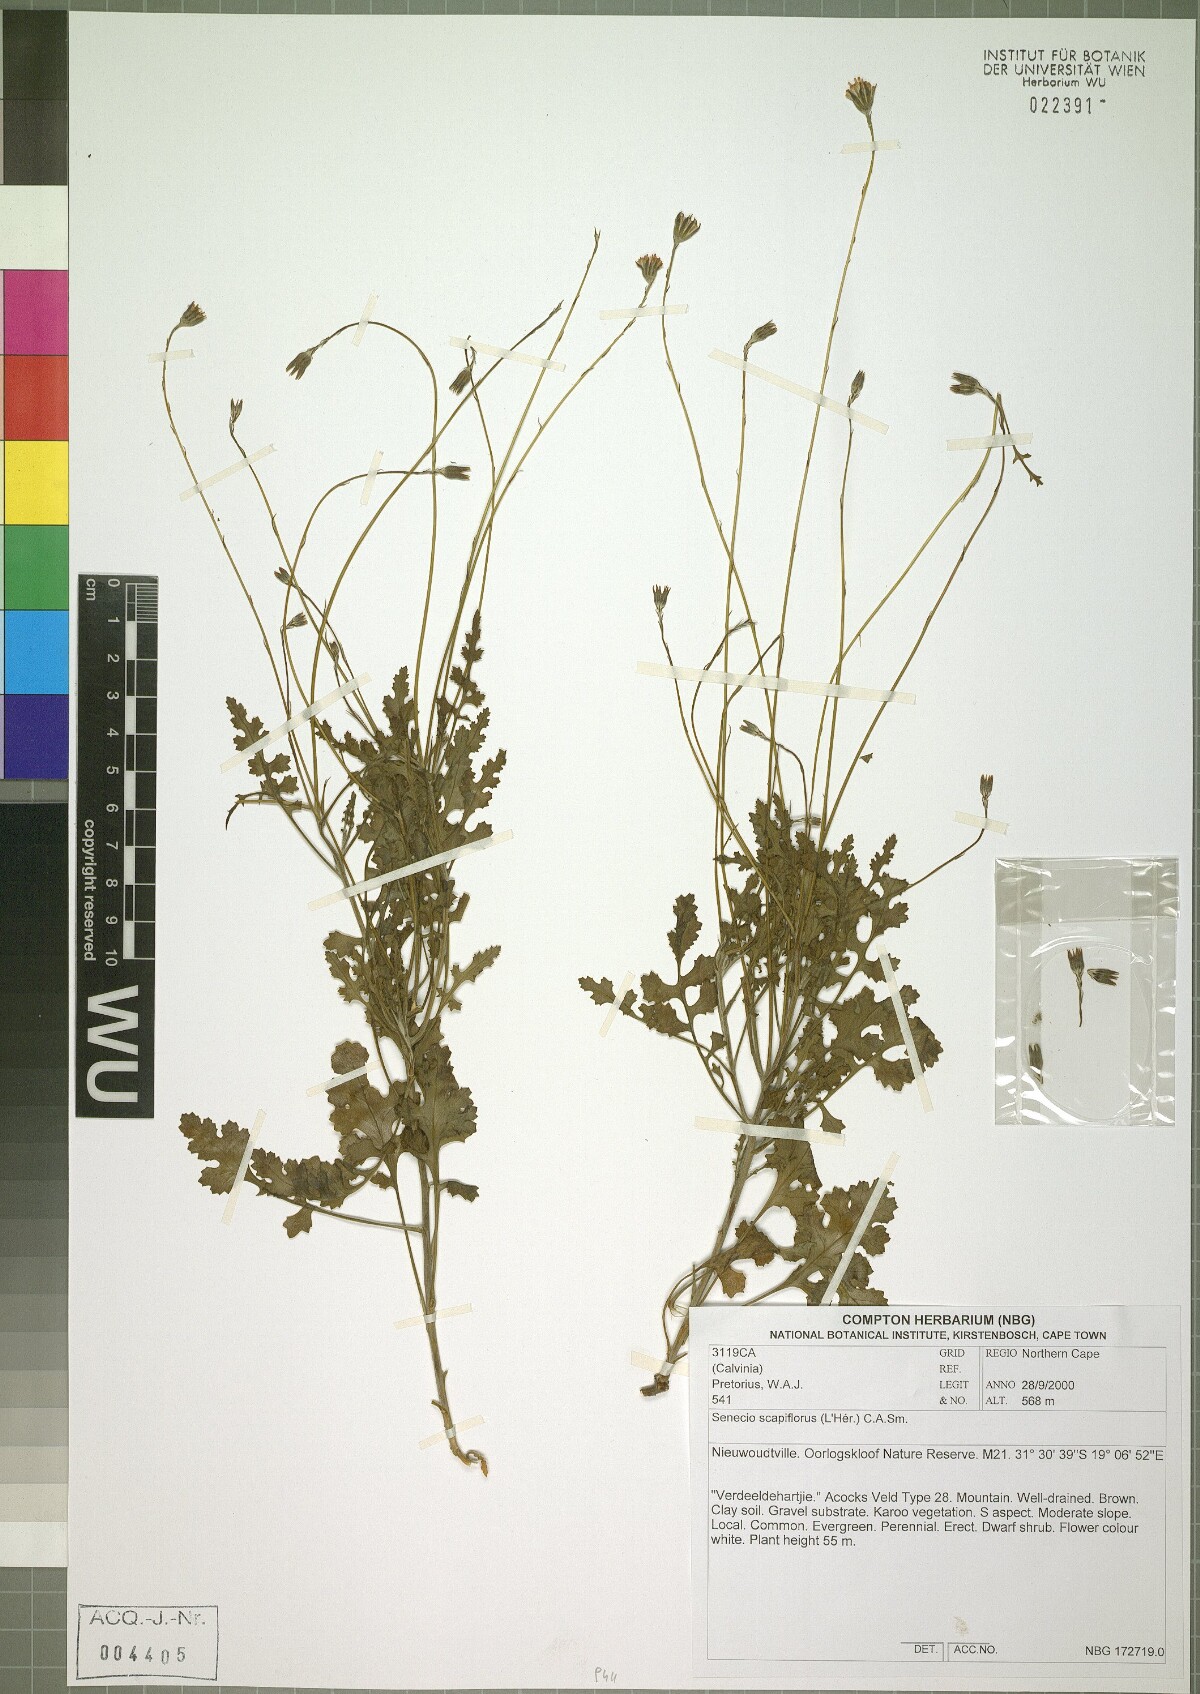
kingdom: Plantae
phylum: Tracheophyta
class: Magnoliopsida
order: Asterales
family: Asteraceae
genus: Bolandia
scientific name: Bolandia elongata
